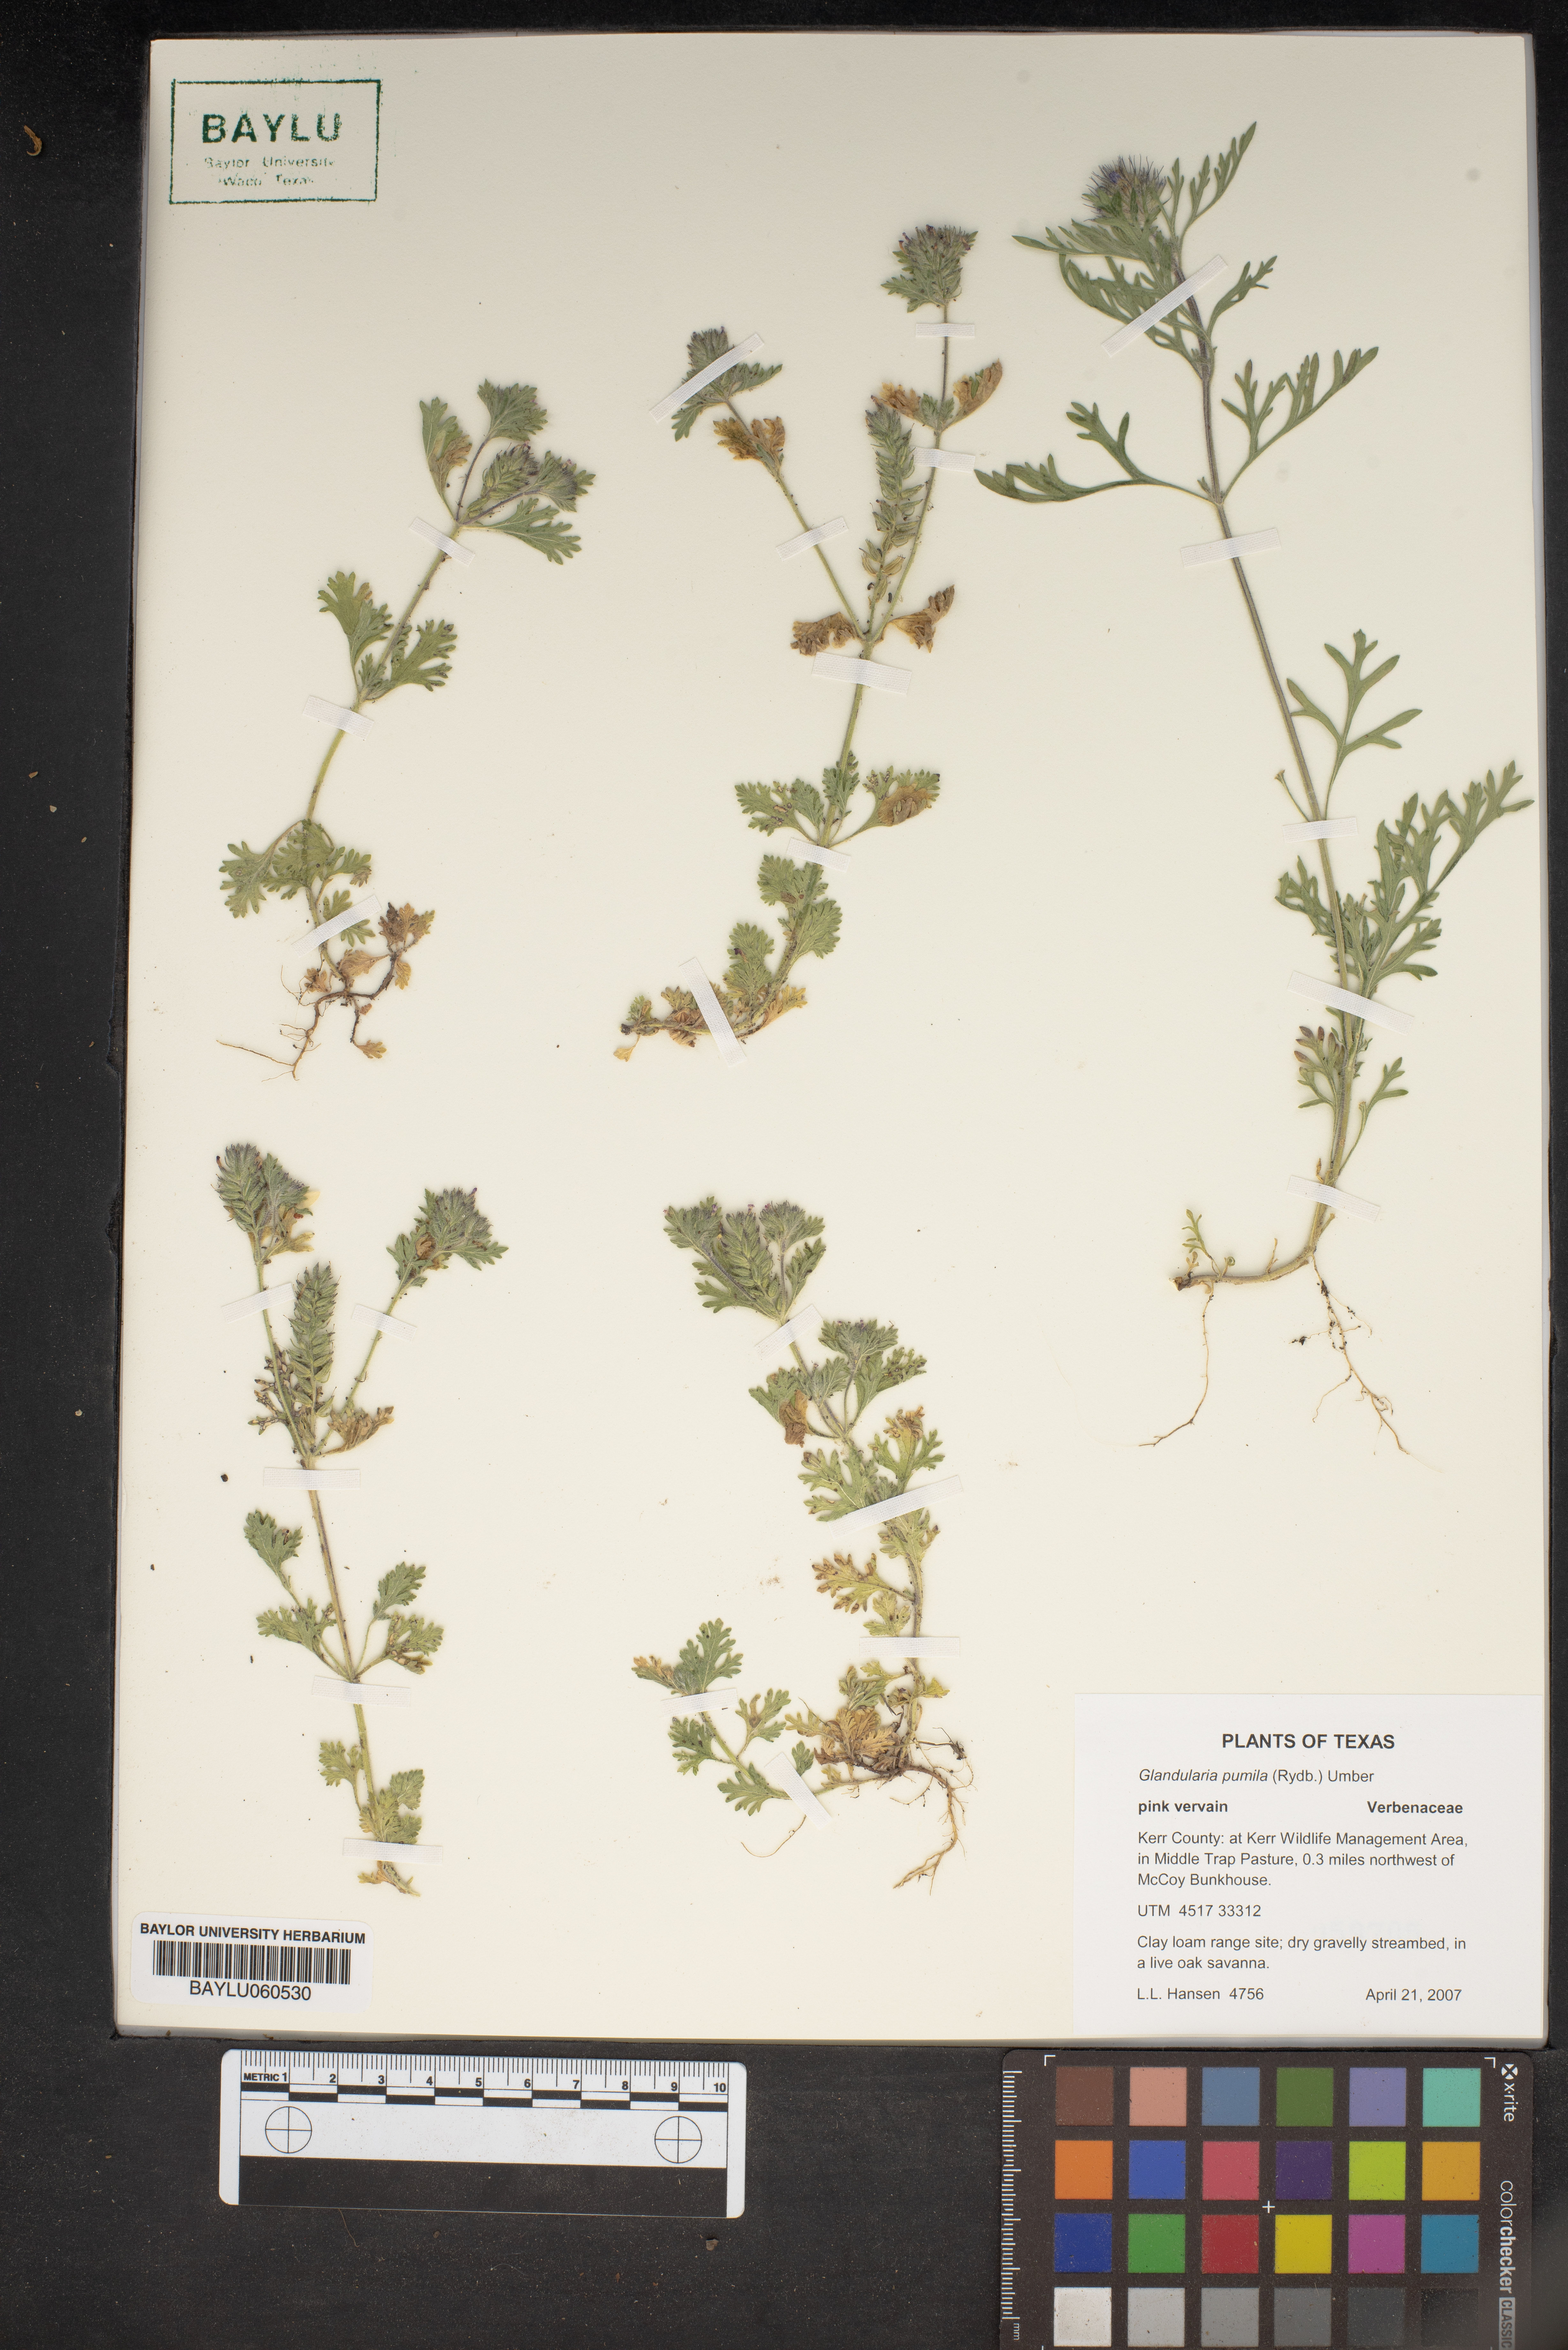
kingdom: Plantae
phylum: Tracheophyta
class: Magnoliopsida
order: Lamiales
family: Verbenaceae
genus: Verbena
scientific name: Verbena pumila
